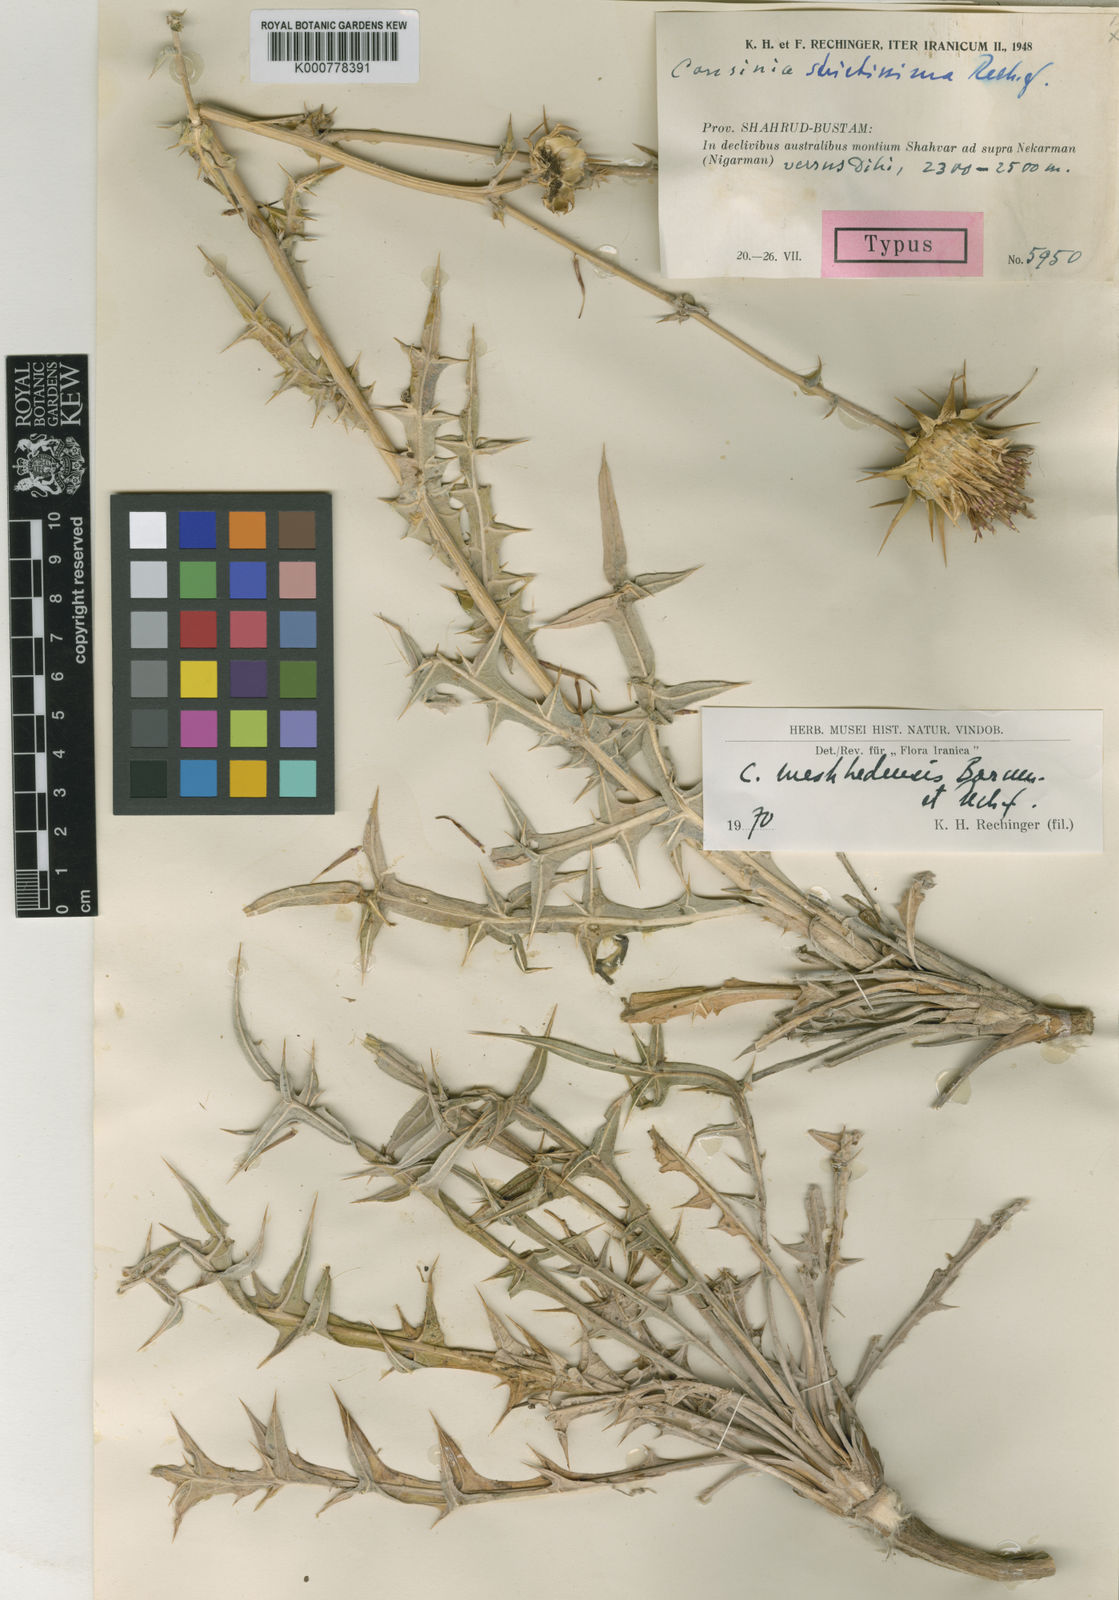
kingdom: Plantae
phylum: Tracheophyta
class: Magnoliopsida
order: Asterales
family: Asteraceae
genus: Cousinia
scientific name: Cousinia meshhedensis
